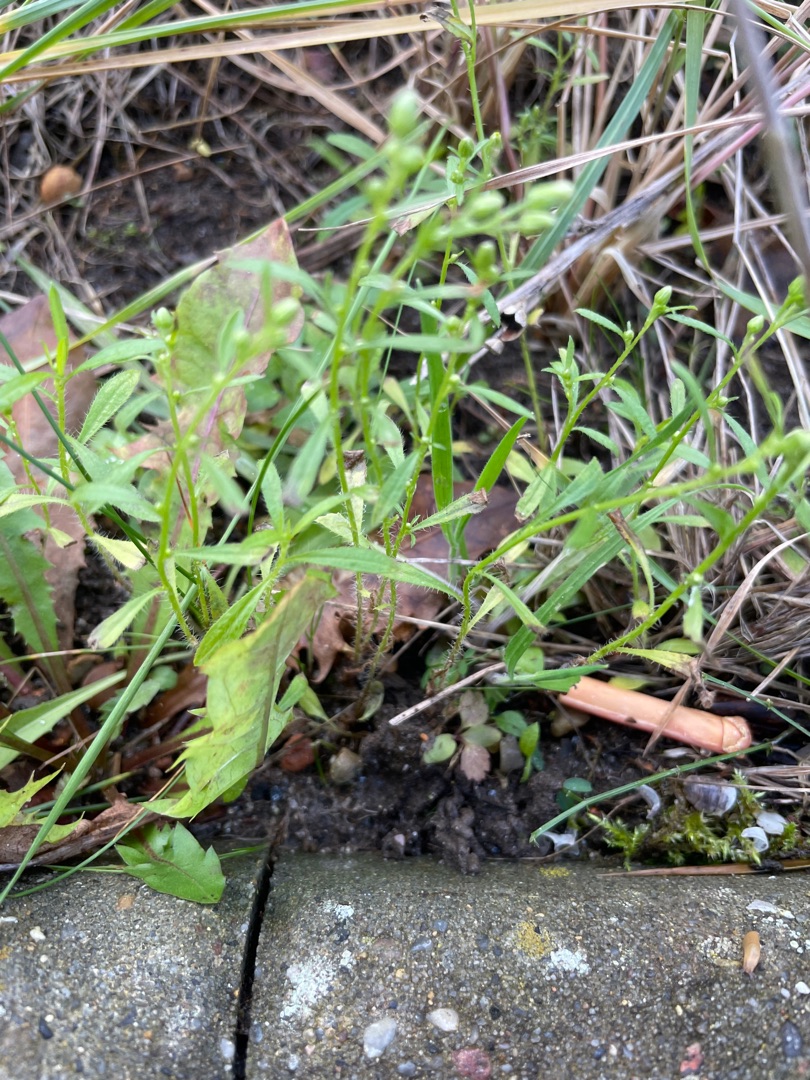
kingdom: Plantae
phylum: Tracheophyta
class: Magnoliopsida
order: Asterales
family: Asteraceae
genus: Erigeron
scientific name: Erigeron canadensis
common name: Kanadisk bakkestjerne
